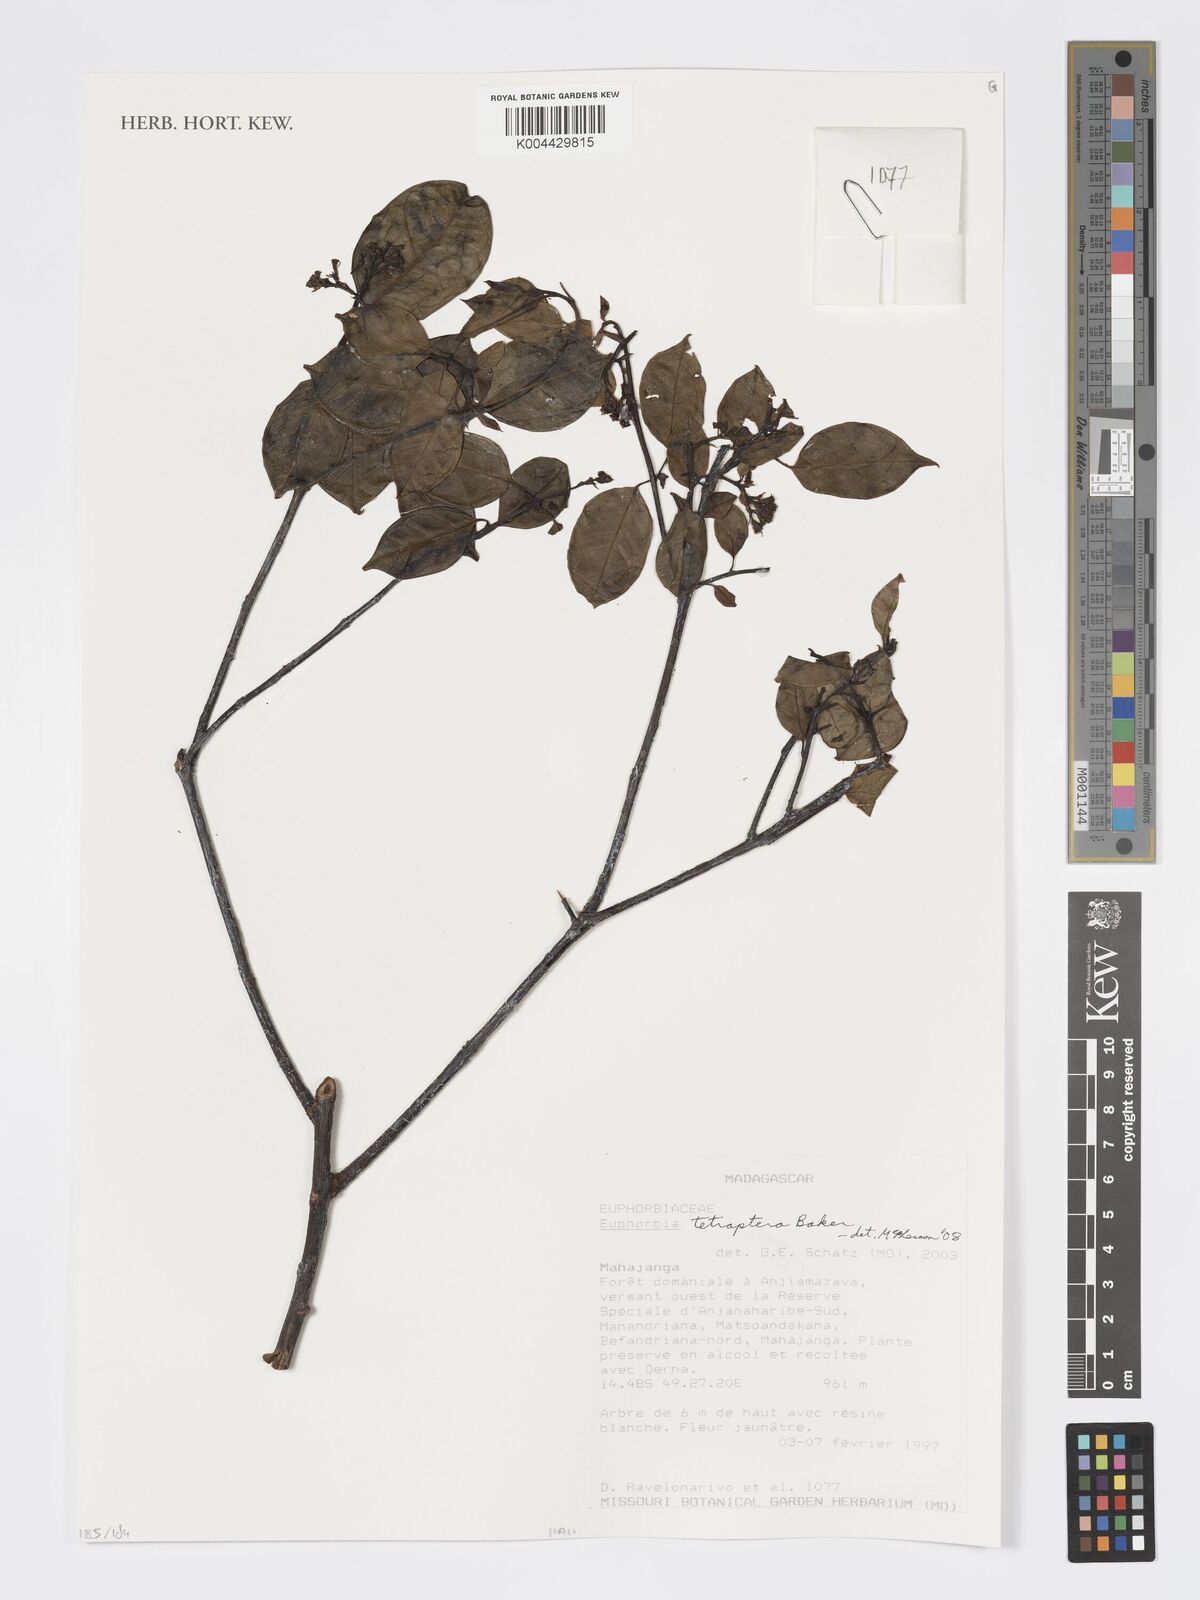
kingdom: Plantae
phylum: Tracheophyta
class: Magnoliopsida
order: Malpighiales
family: Euphorbiaceae
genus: Euphorbia
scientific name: Euphorbia tetraptera
